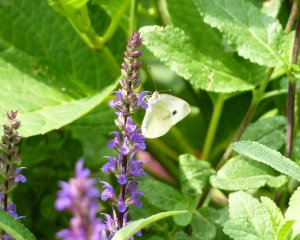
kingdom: Animalia
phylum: Arthropoda
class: Insecta
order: Lepidoptera
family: Pieridae
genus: Pieris
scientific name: Pieris rapae
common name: Cabbage White
